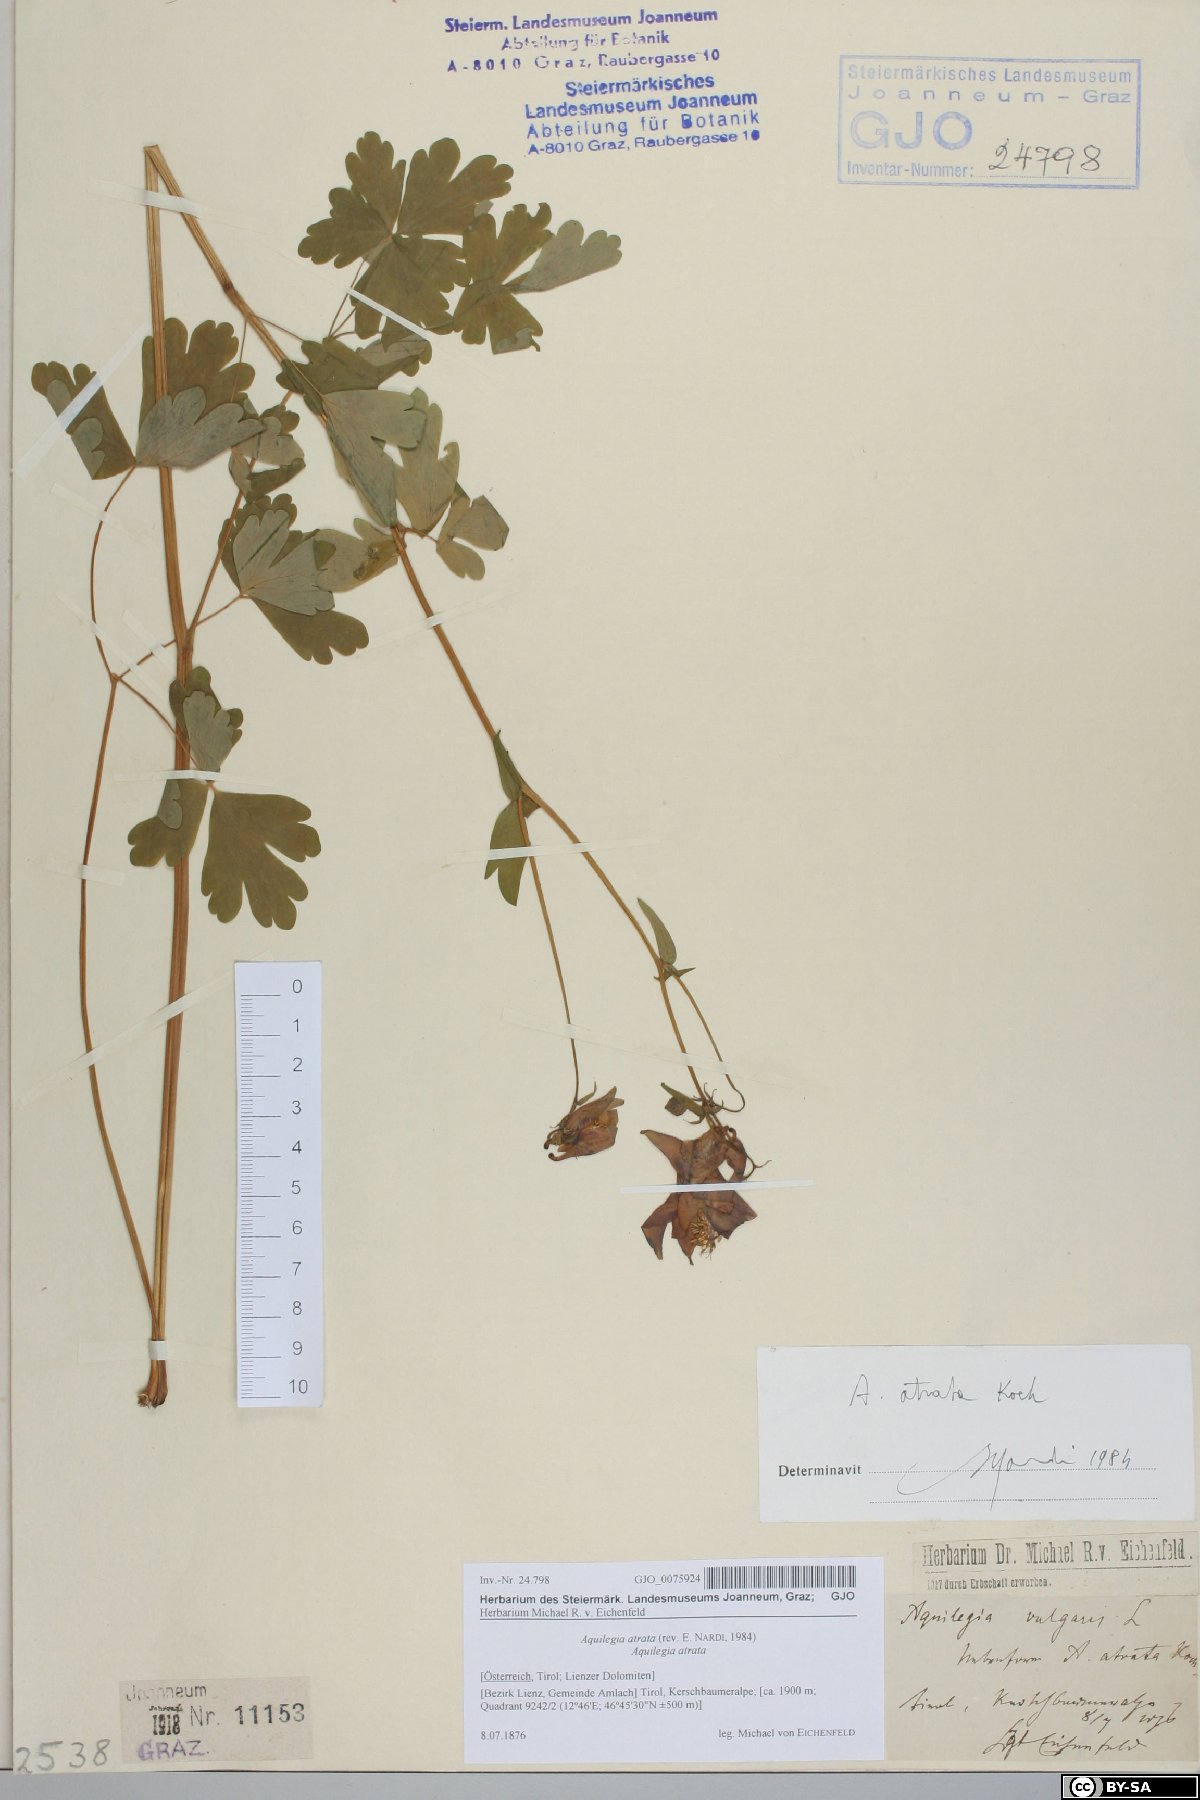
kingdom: Plantae
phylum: Tracheophyta
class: Magnoliopsida
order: Ranunculales
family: Ranunculaceae
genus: Aquilegia
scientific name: Aquilegia atrata
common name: Dark columbine
